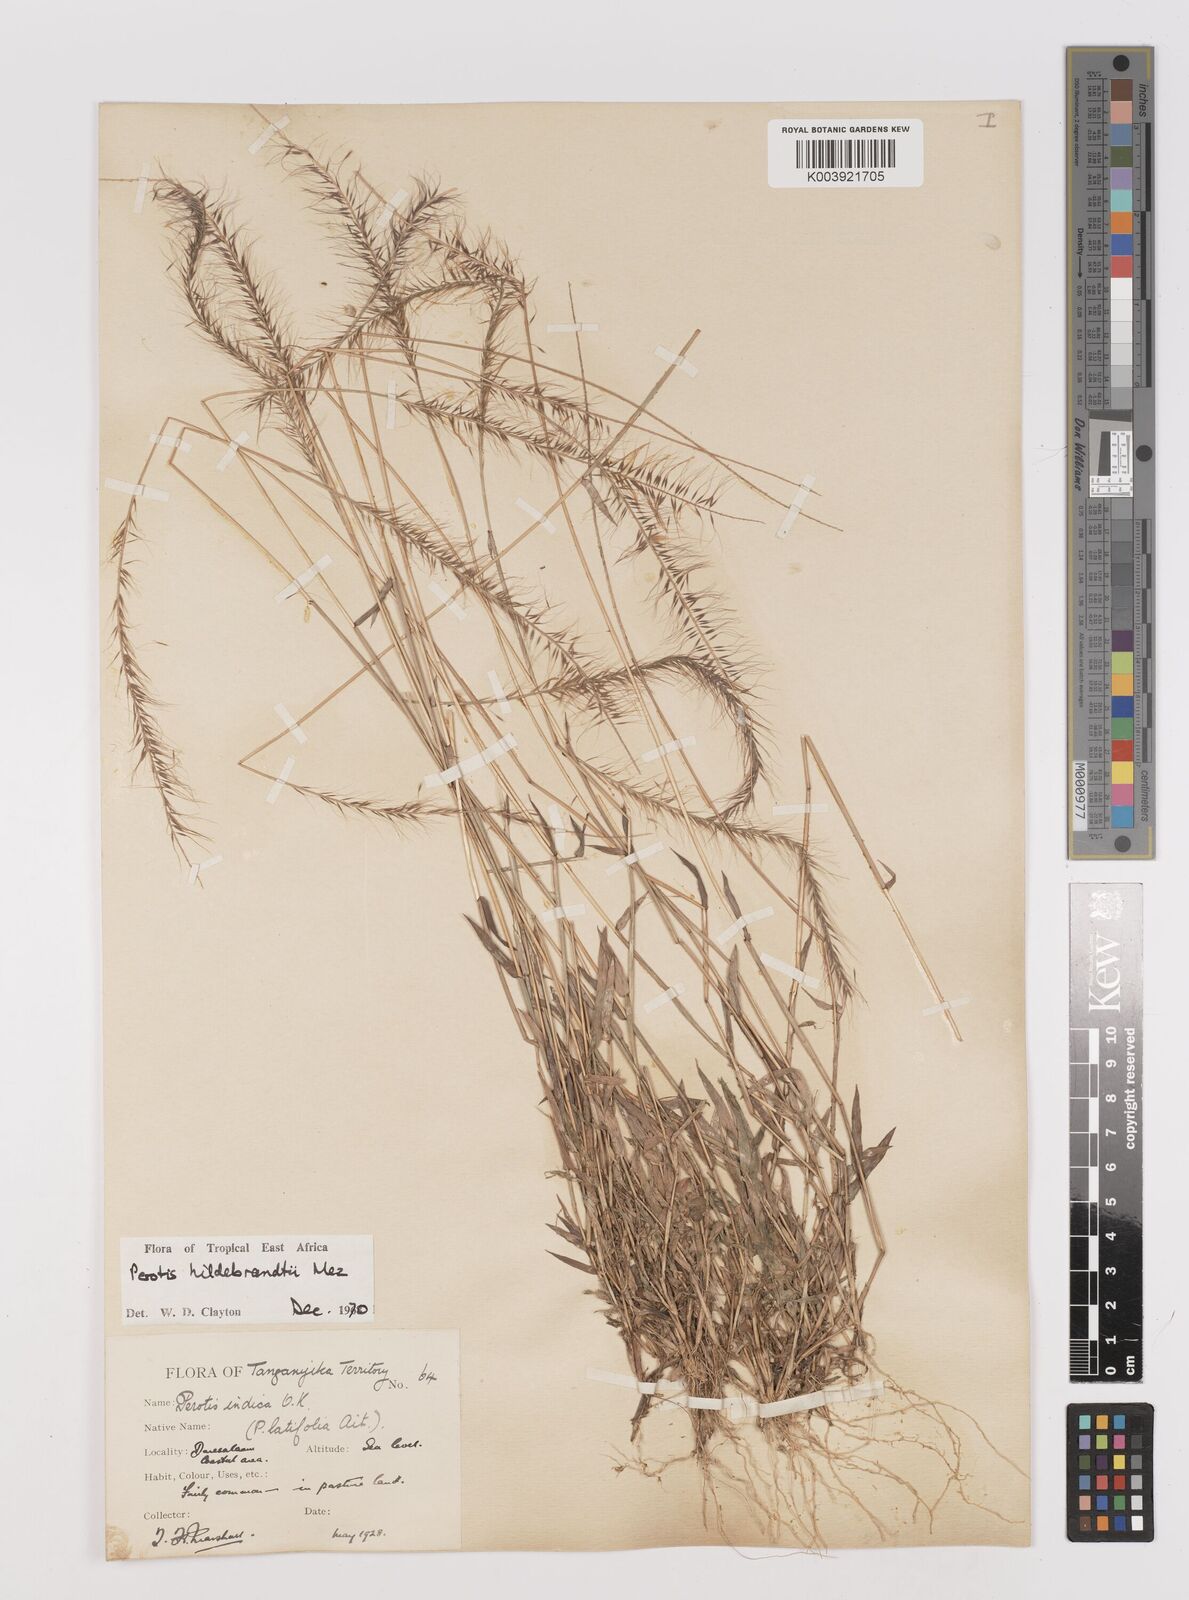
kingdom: Plantae
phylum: Tracheophyta
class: Liliopsida
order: Poales
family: Poaceae
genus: Perotis
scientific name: Perotis hildebrandtii
